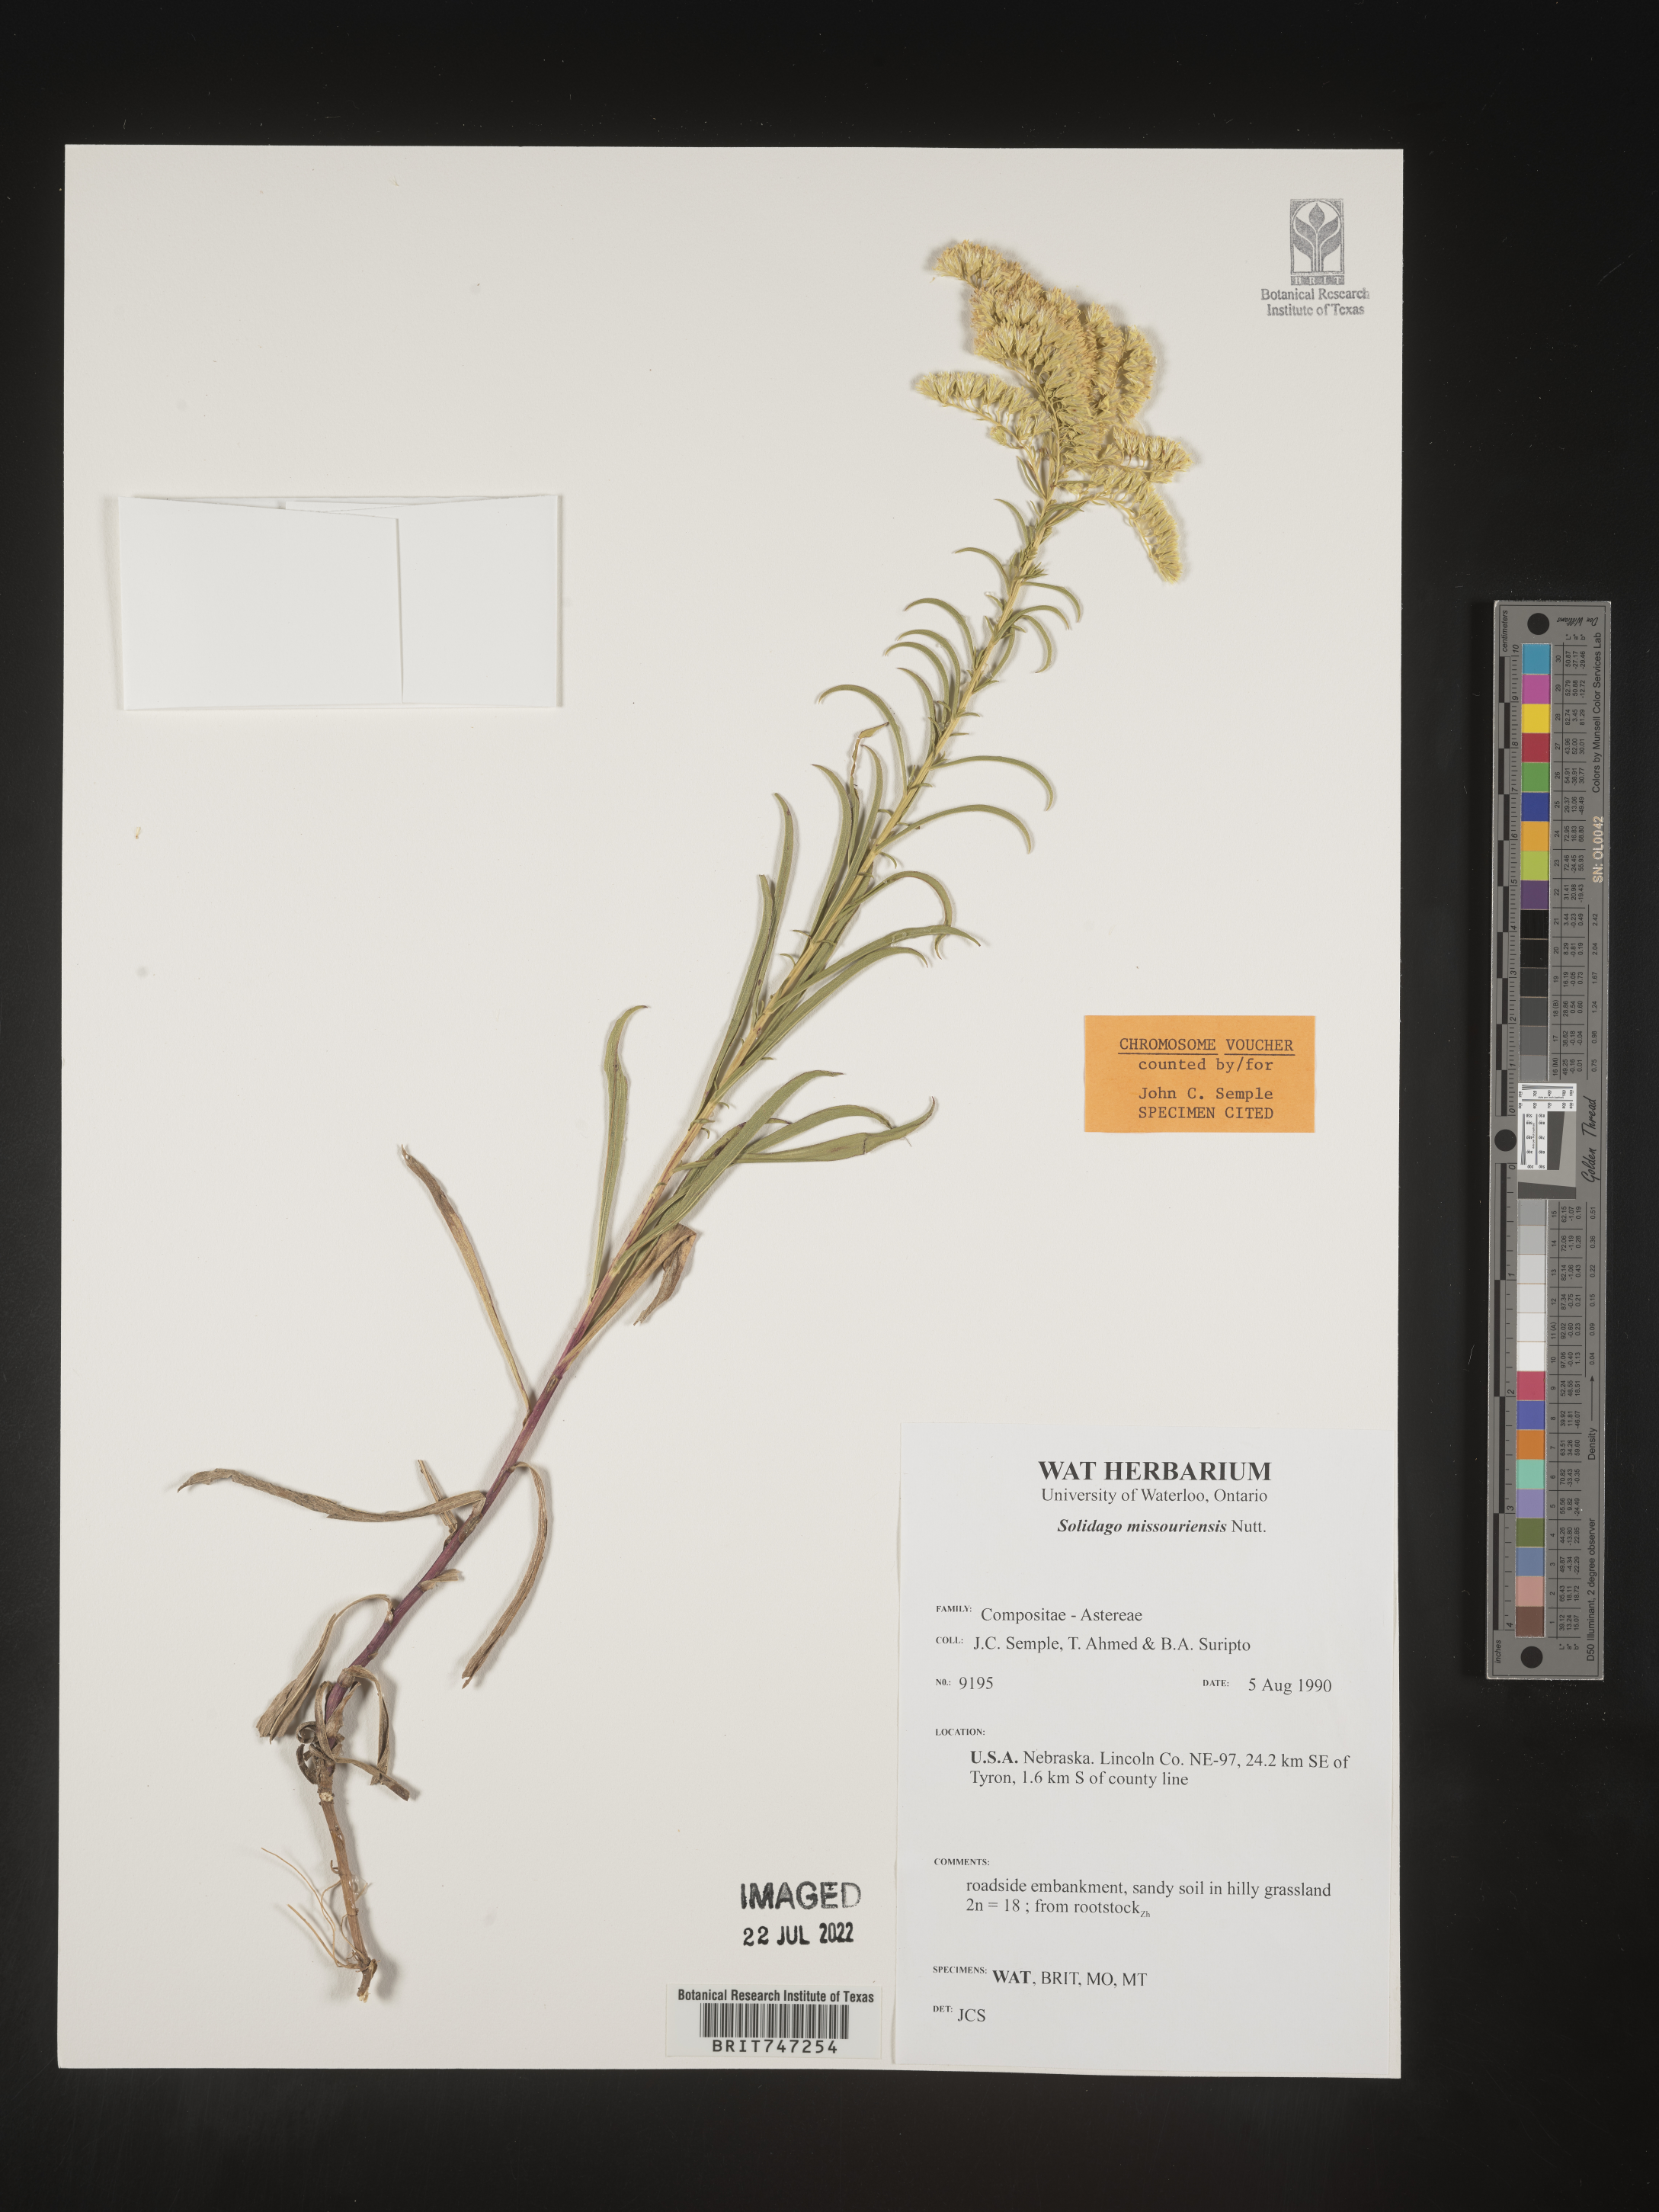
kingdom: Plantae
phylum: Tracheophyta
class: Magnoliopsida
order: Asterales
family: Asteraceae
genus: Solidago
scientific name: Solidago missouriensis
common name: Prairie goldenrod
